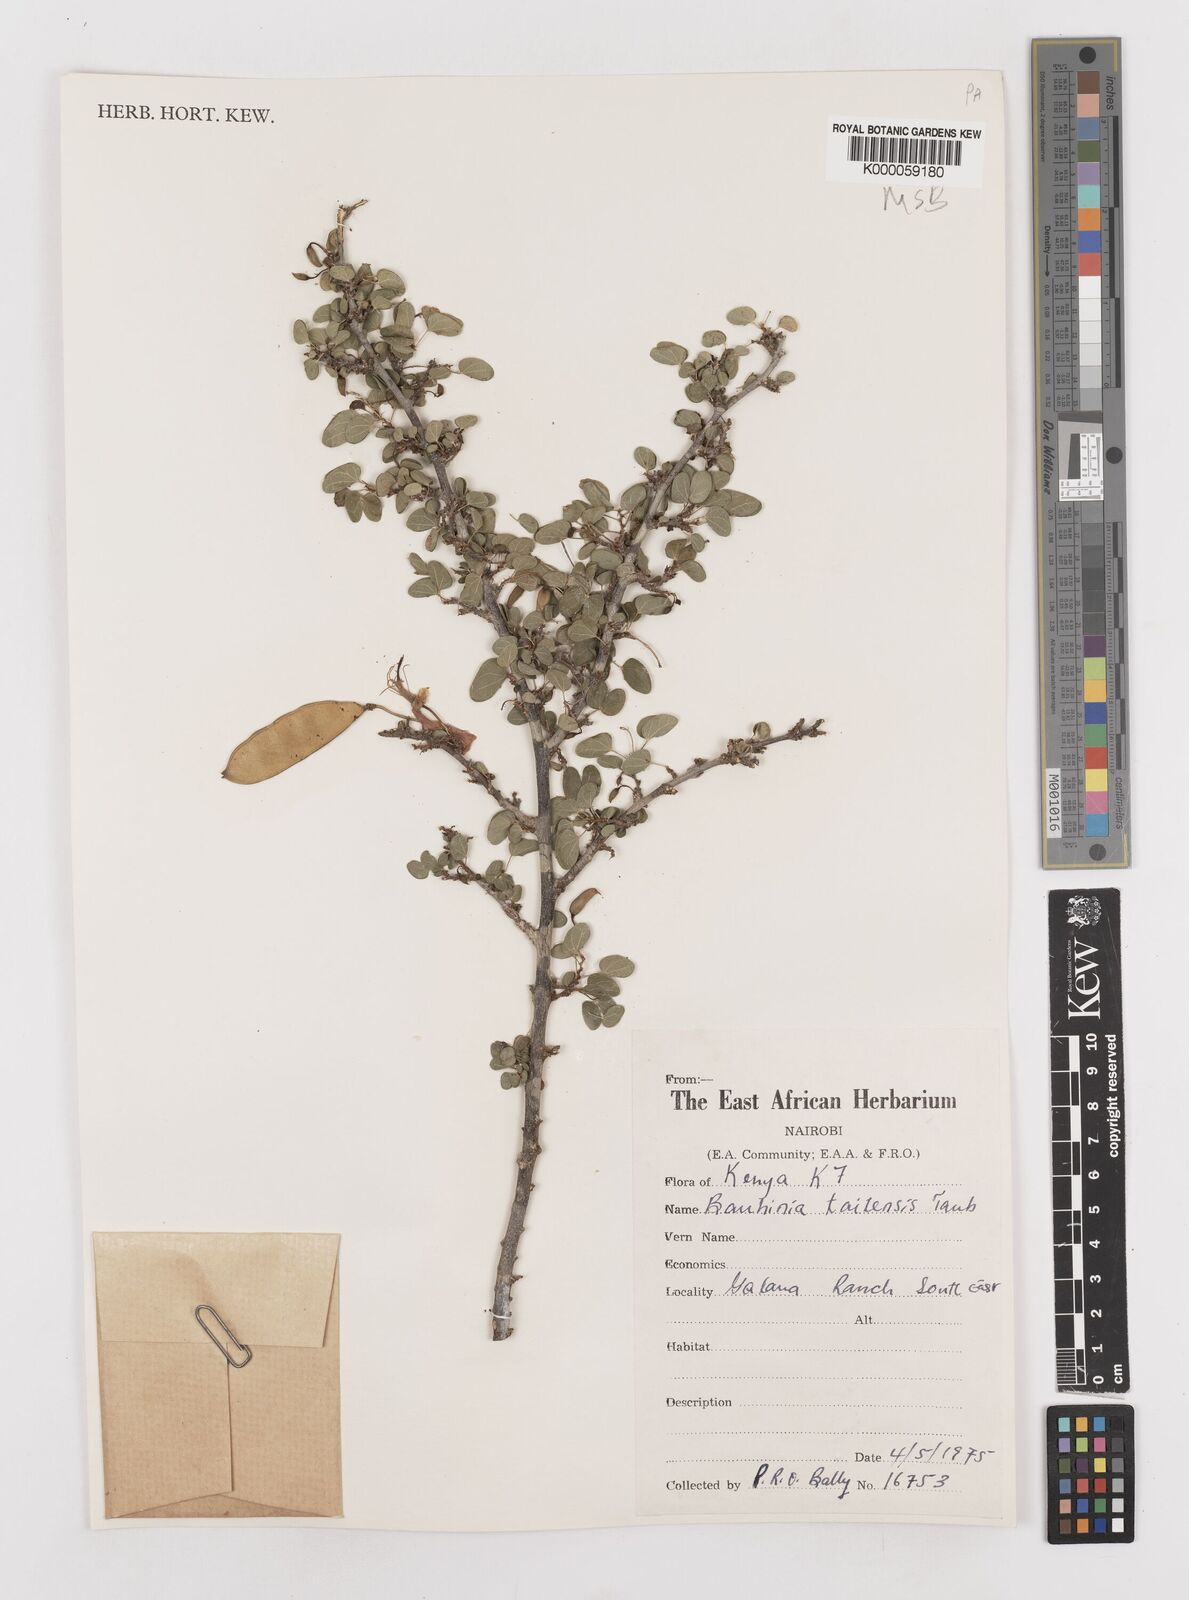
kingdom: Plantae
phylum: Tracheophyta
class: Magnoliopsida
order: Fabales
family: Fabaceae
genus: Bauhinia
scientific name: Bauhinia taitensis
